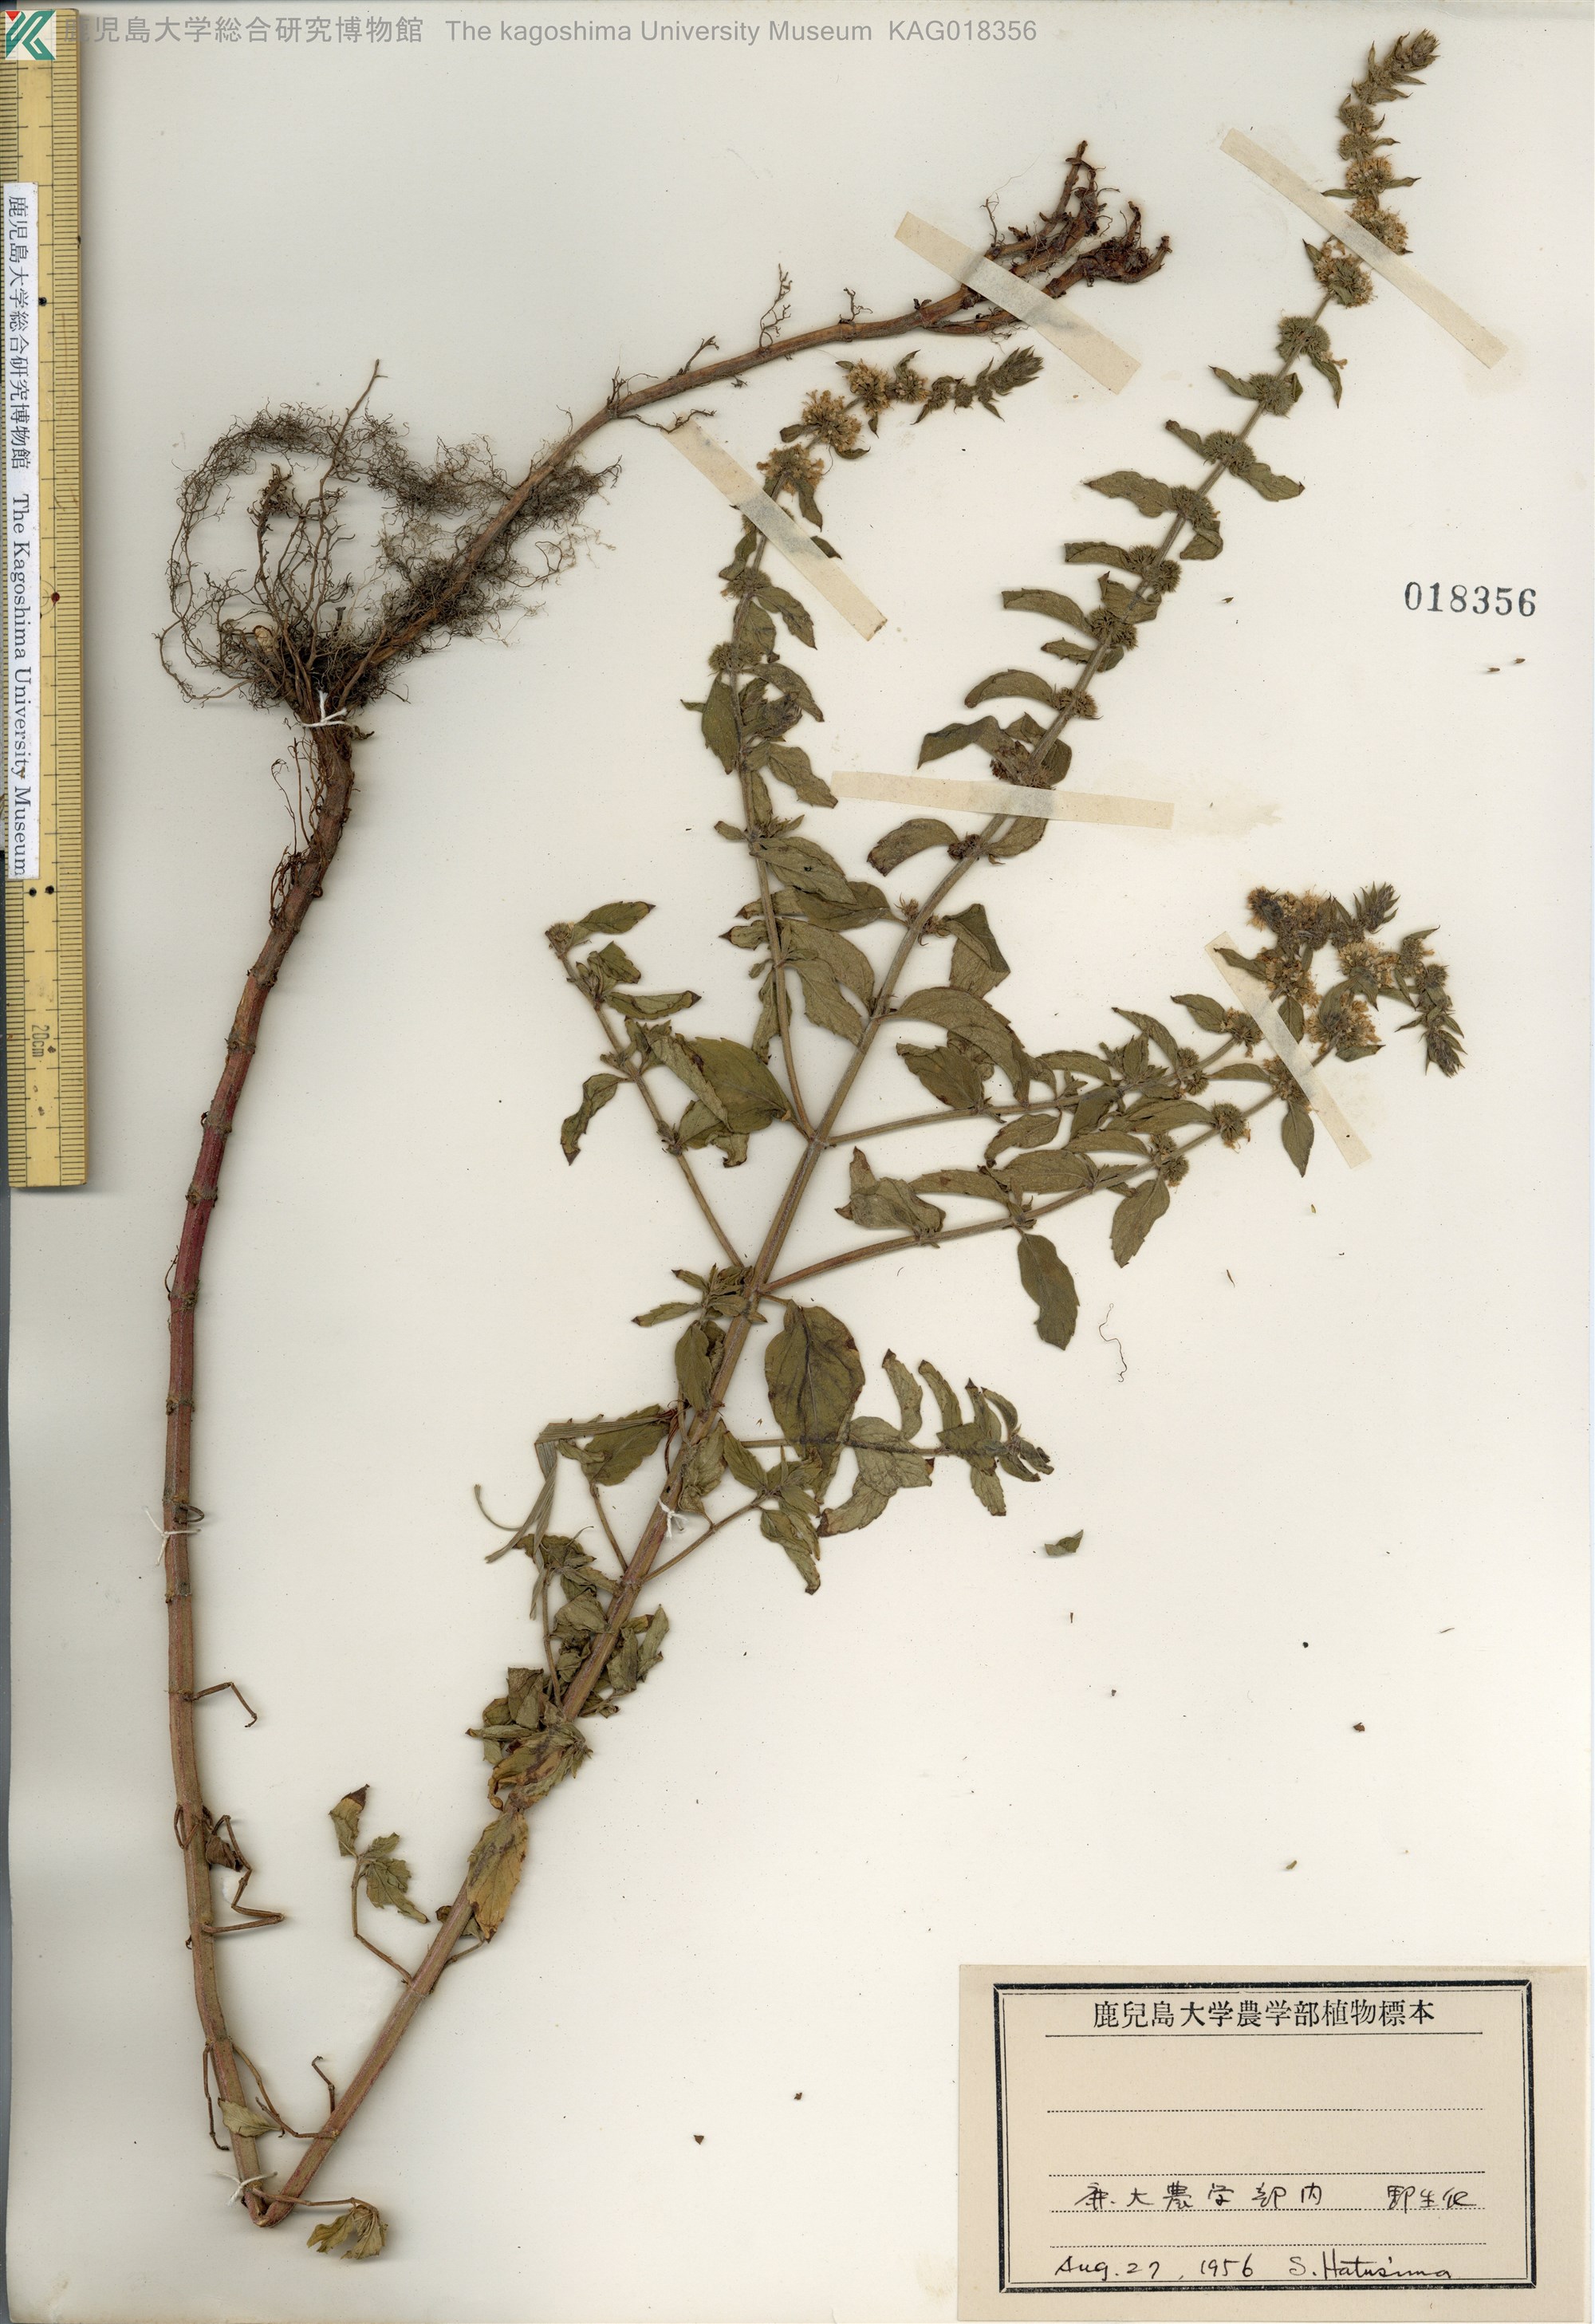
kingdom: Plantae
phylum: Tracheophyta
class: Magnoliopsida
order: Lamiales
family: Lamiaceae
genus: Mentha
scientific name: Mentha canadensis
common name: ハッカ
